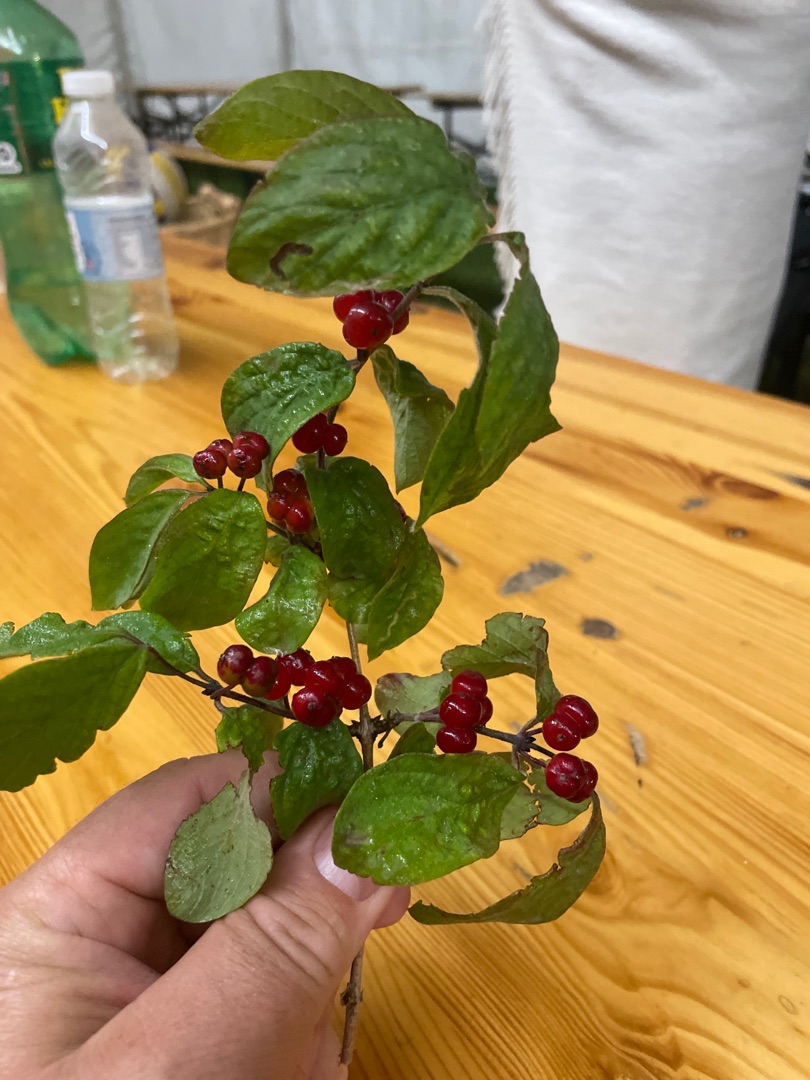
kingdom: Plantae
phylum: Tracheophyta
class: Magnoliopsida
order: Dipsacales
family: Caprifoliaceae
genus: Lonicera
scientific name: Lonicera xylosteum
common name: Dunet gedeblad
